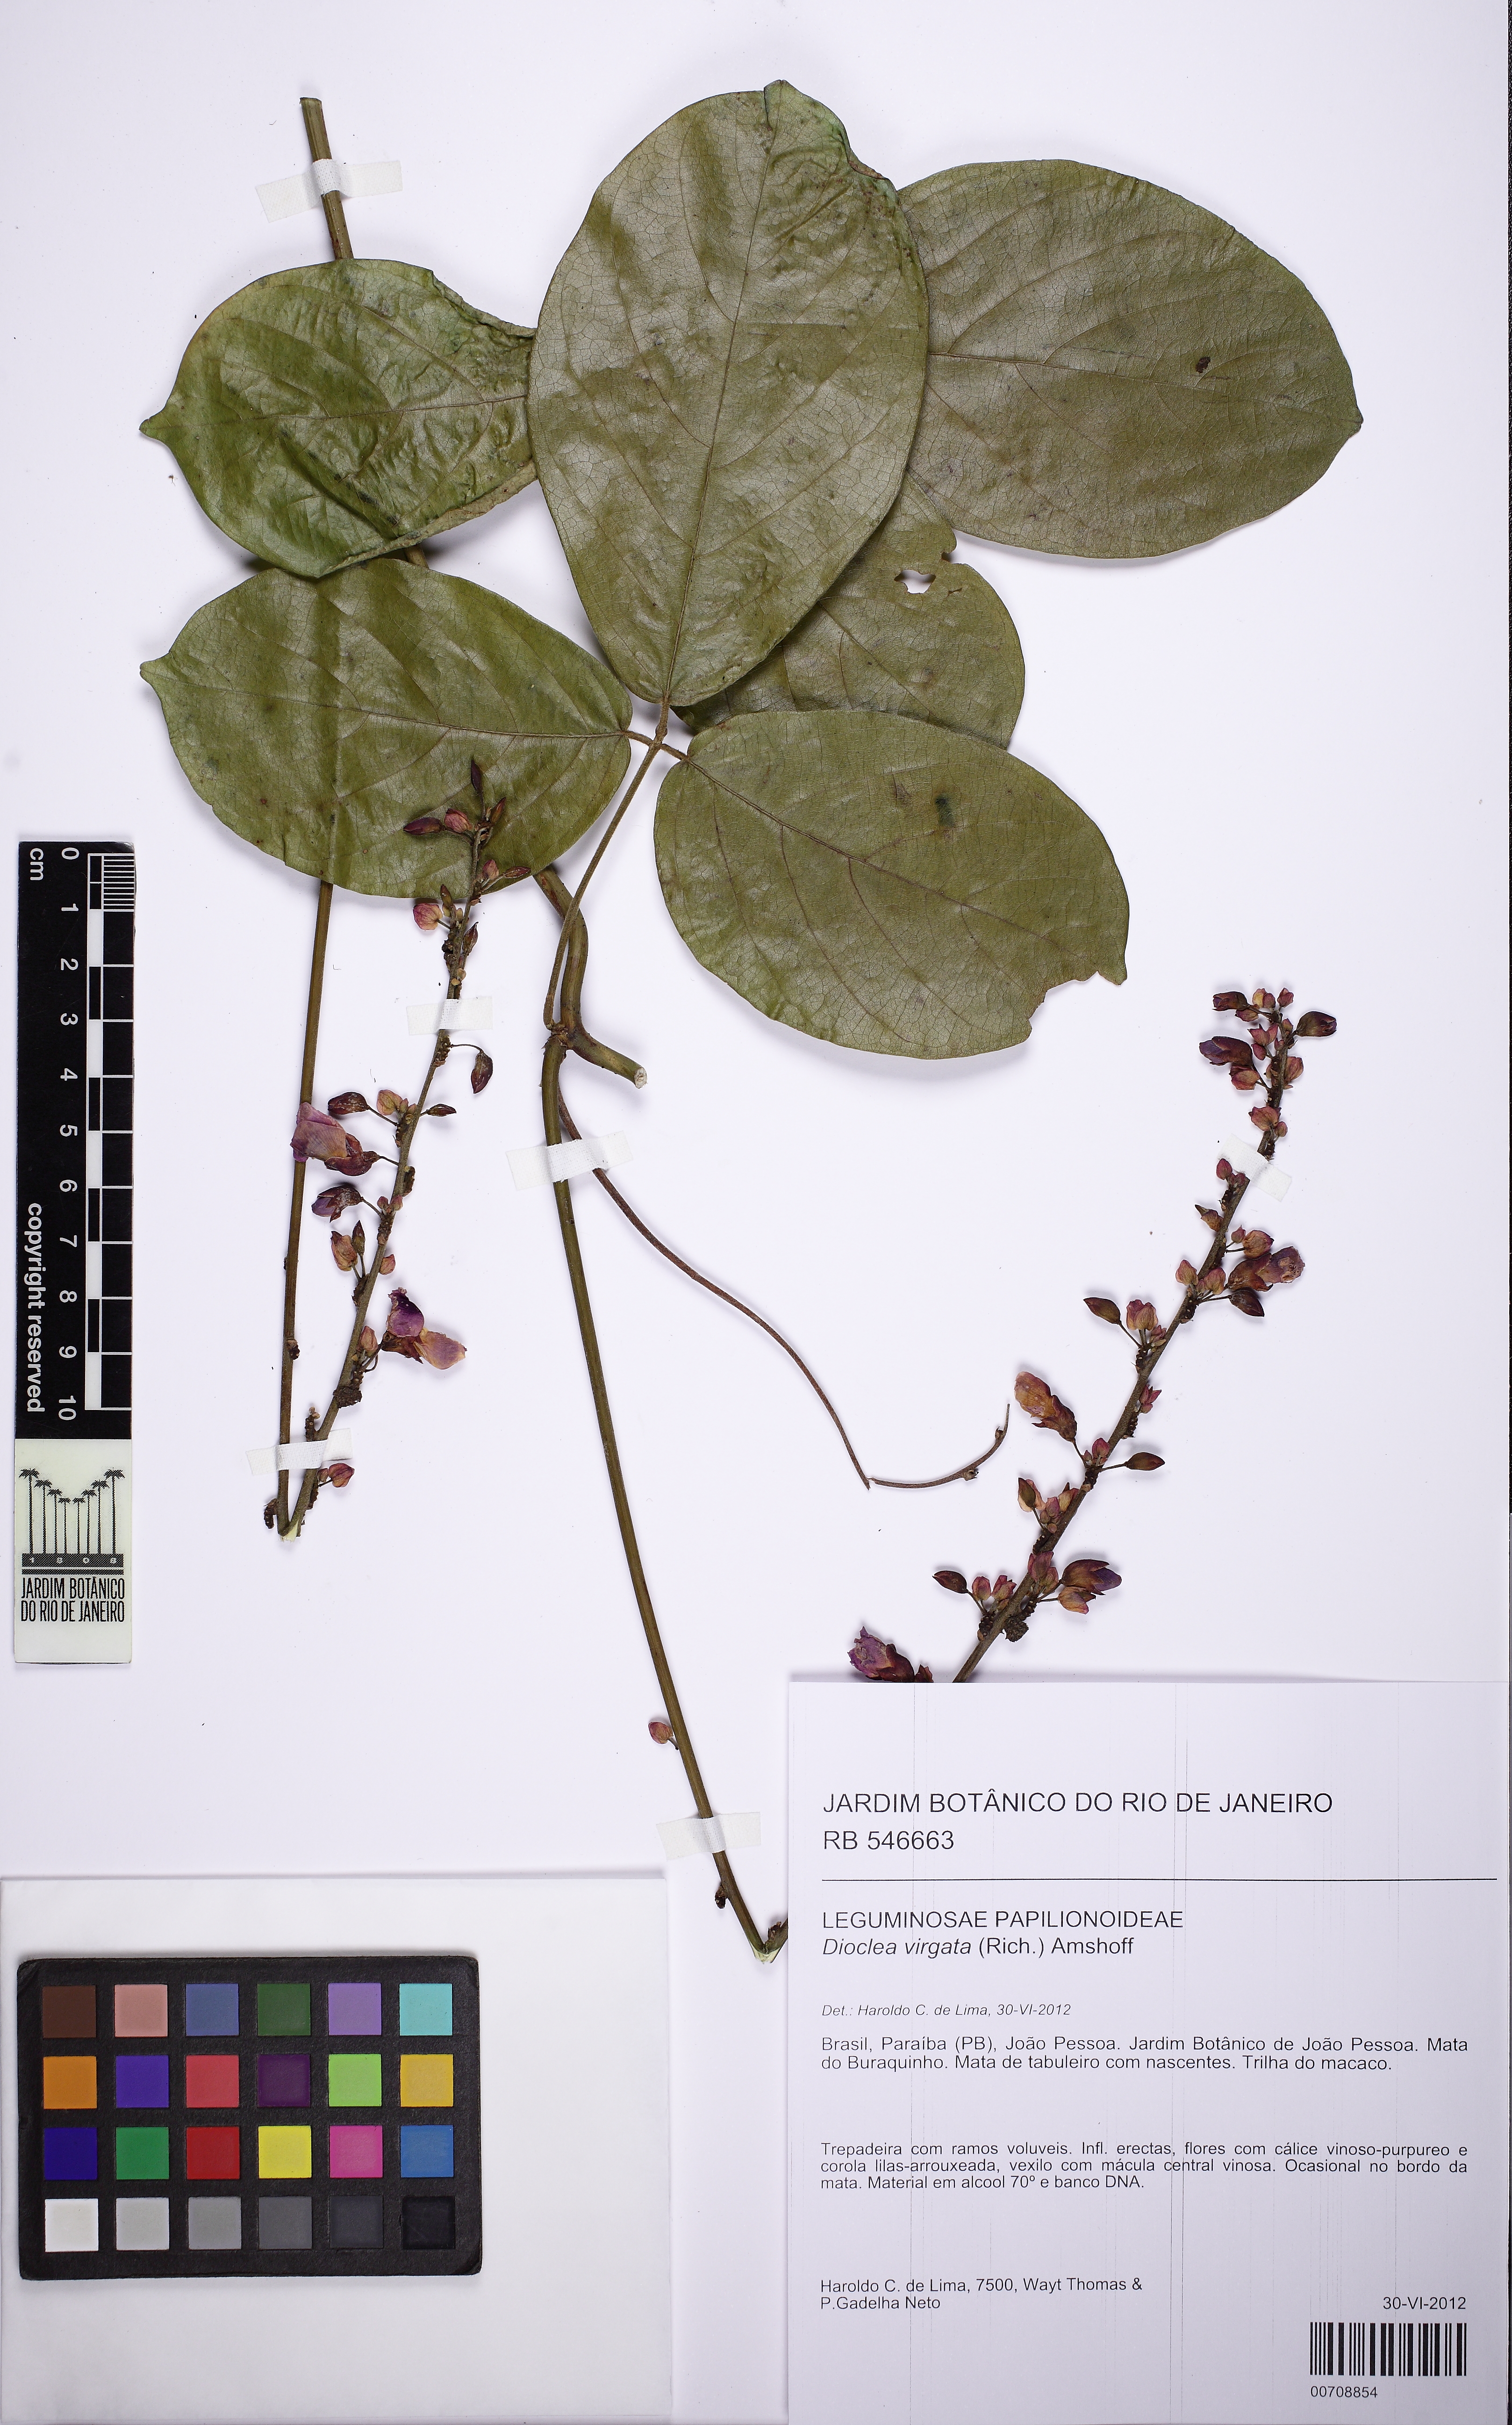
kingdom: Plantae
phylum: Tracheophyta
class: Magnoliopsida
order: Fabales
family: Fabaceae
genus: Dioclea
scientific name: Dioclea virgata
